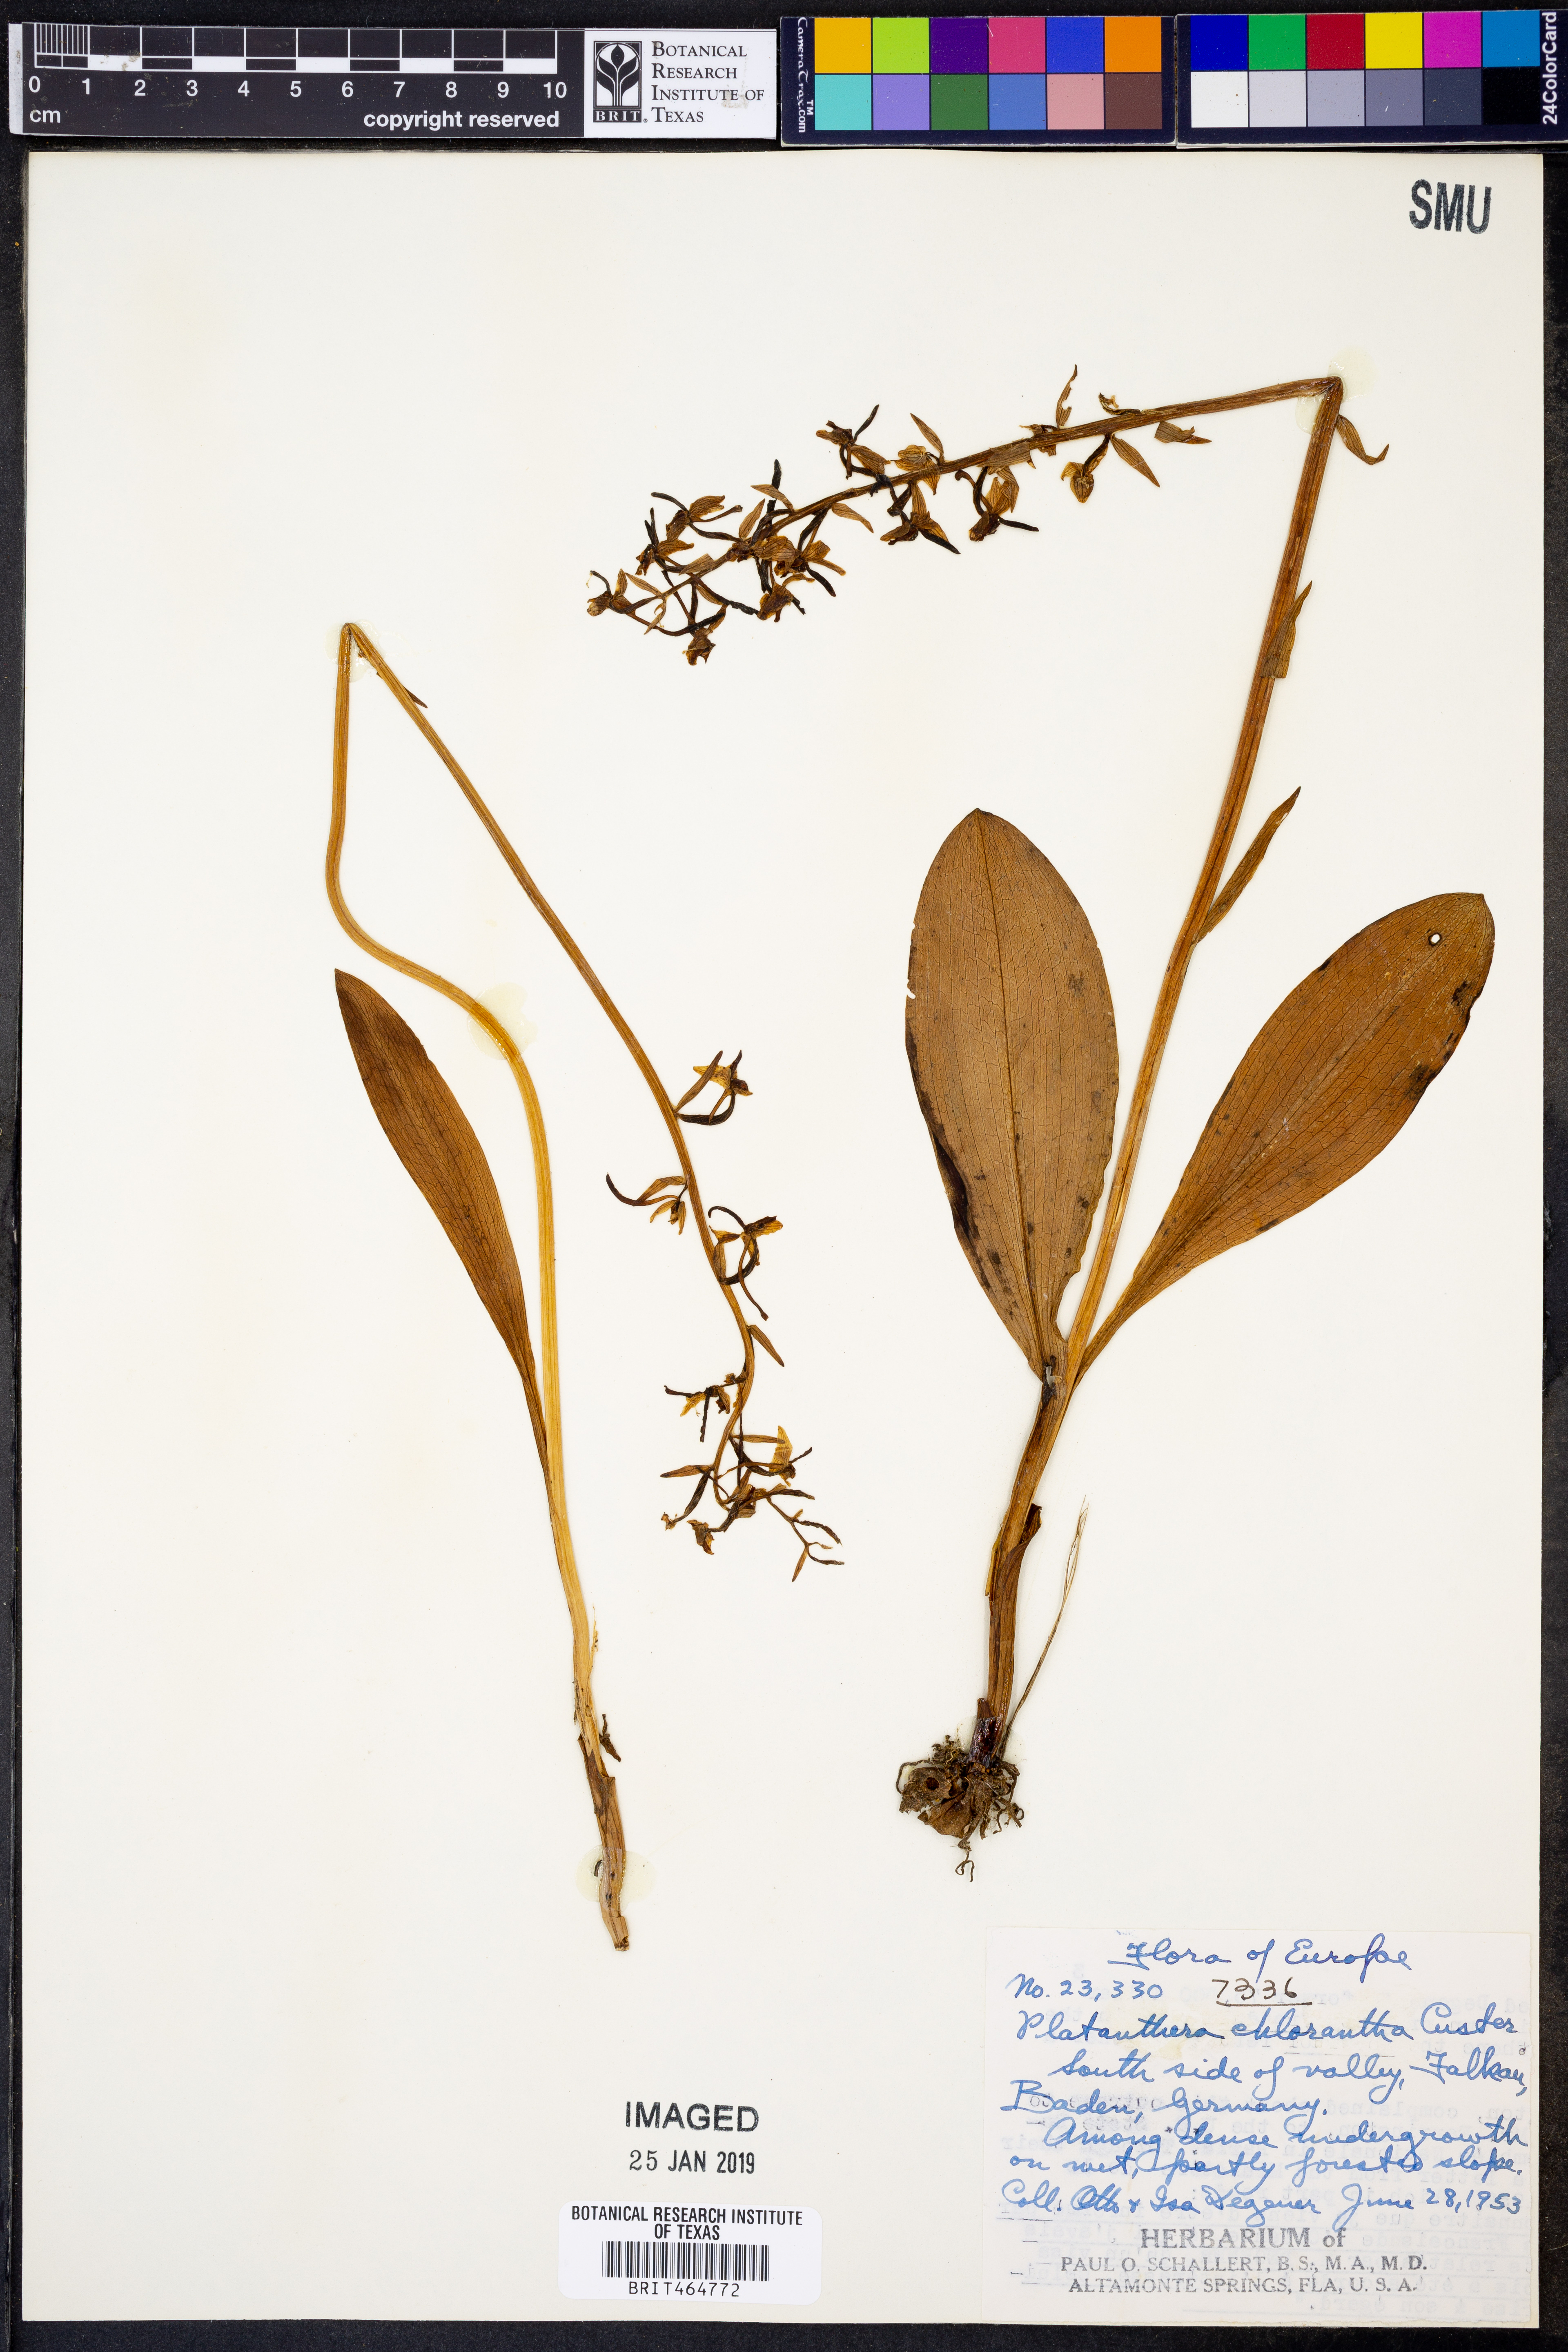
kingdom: Plantae
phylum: Tracheophyta
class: Liliopsida
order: Asparagales
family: Orchidaceae
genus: Platanthera
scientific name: Platanthera chlorantha
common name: Greater butterfly-orchid
